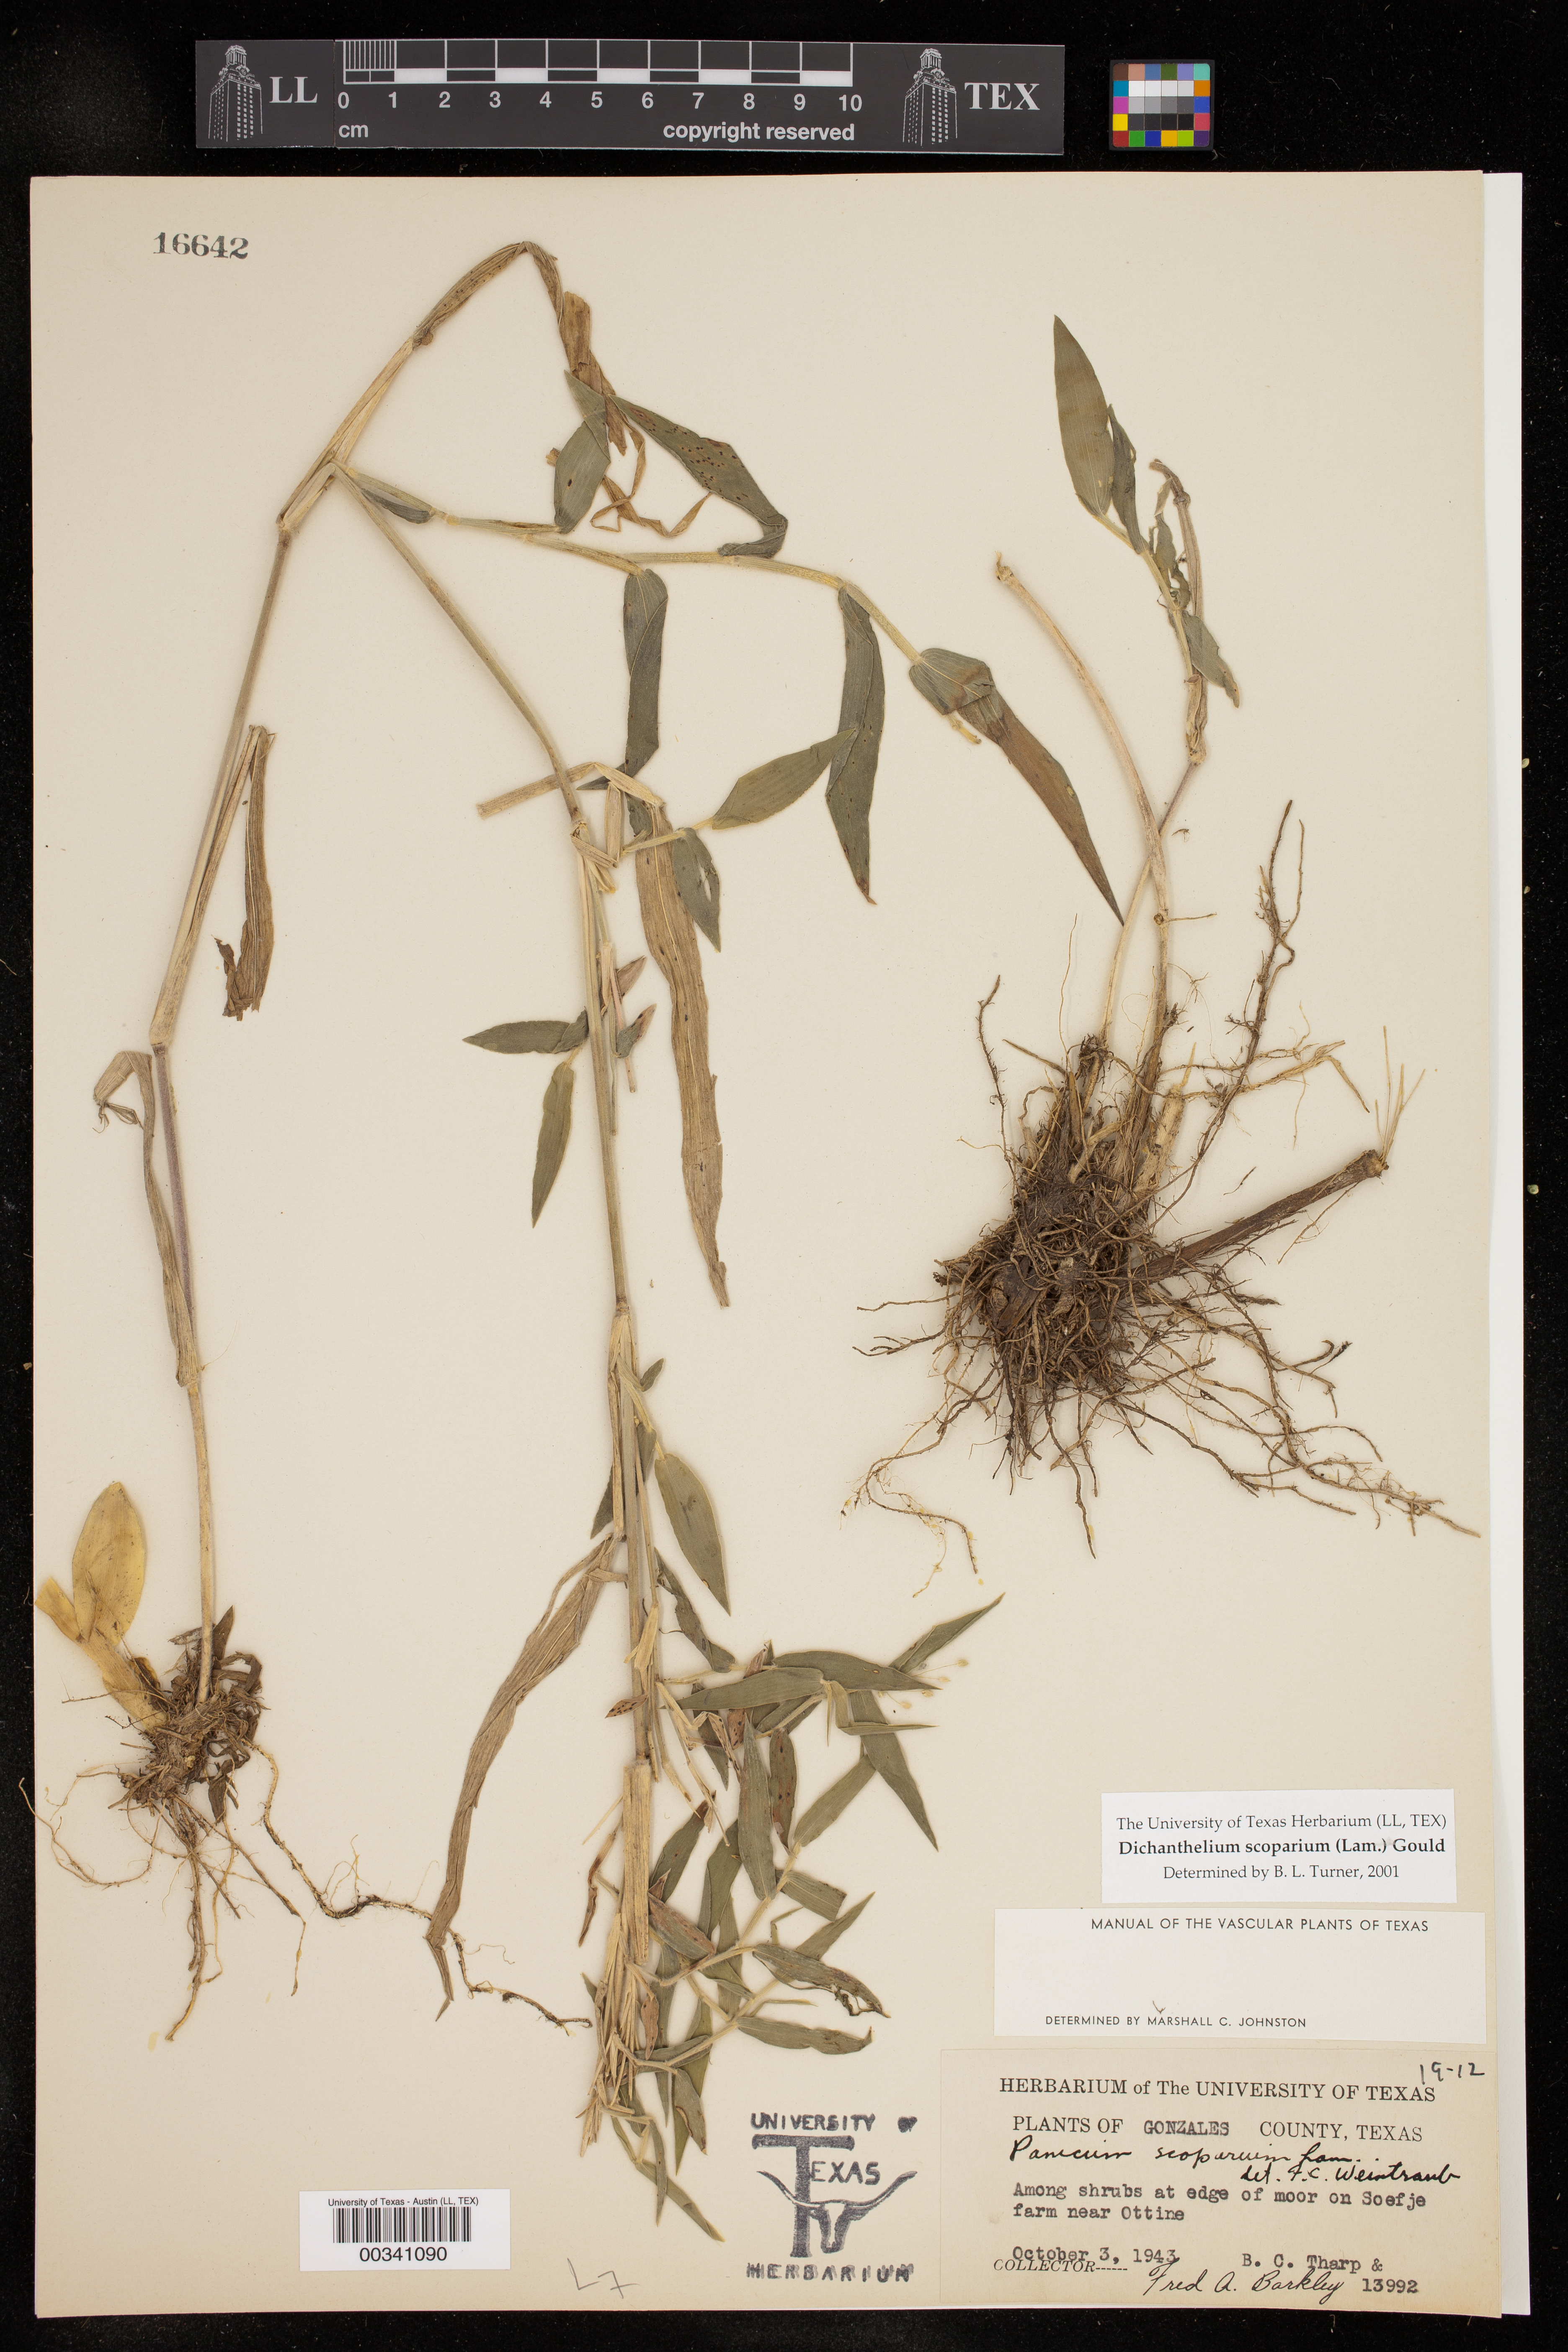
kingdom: Plantae
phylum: Tracheophyta
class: Liliopsida
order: Poales
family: Poaceae
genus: Dichanthelium
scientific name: Dichanthelium scoparium
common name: Velvety panic grass
